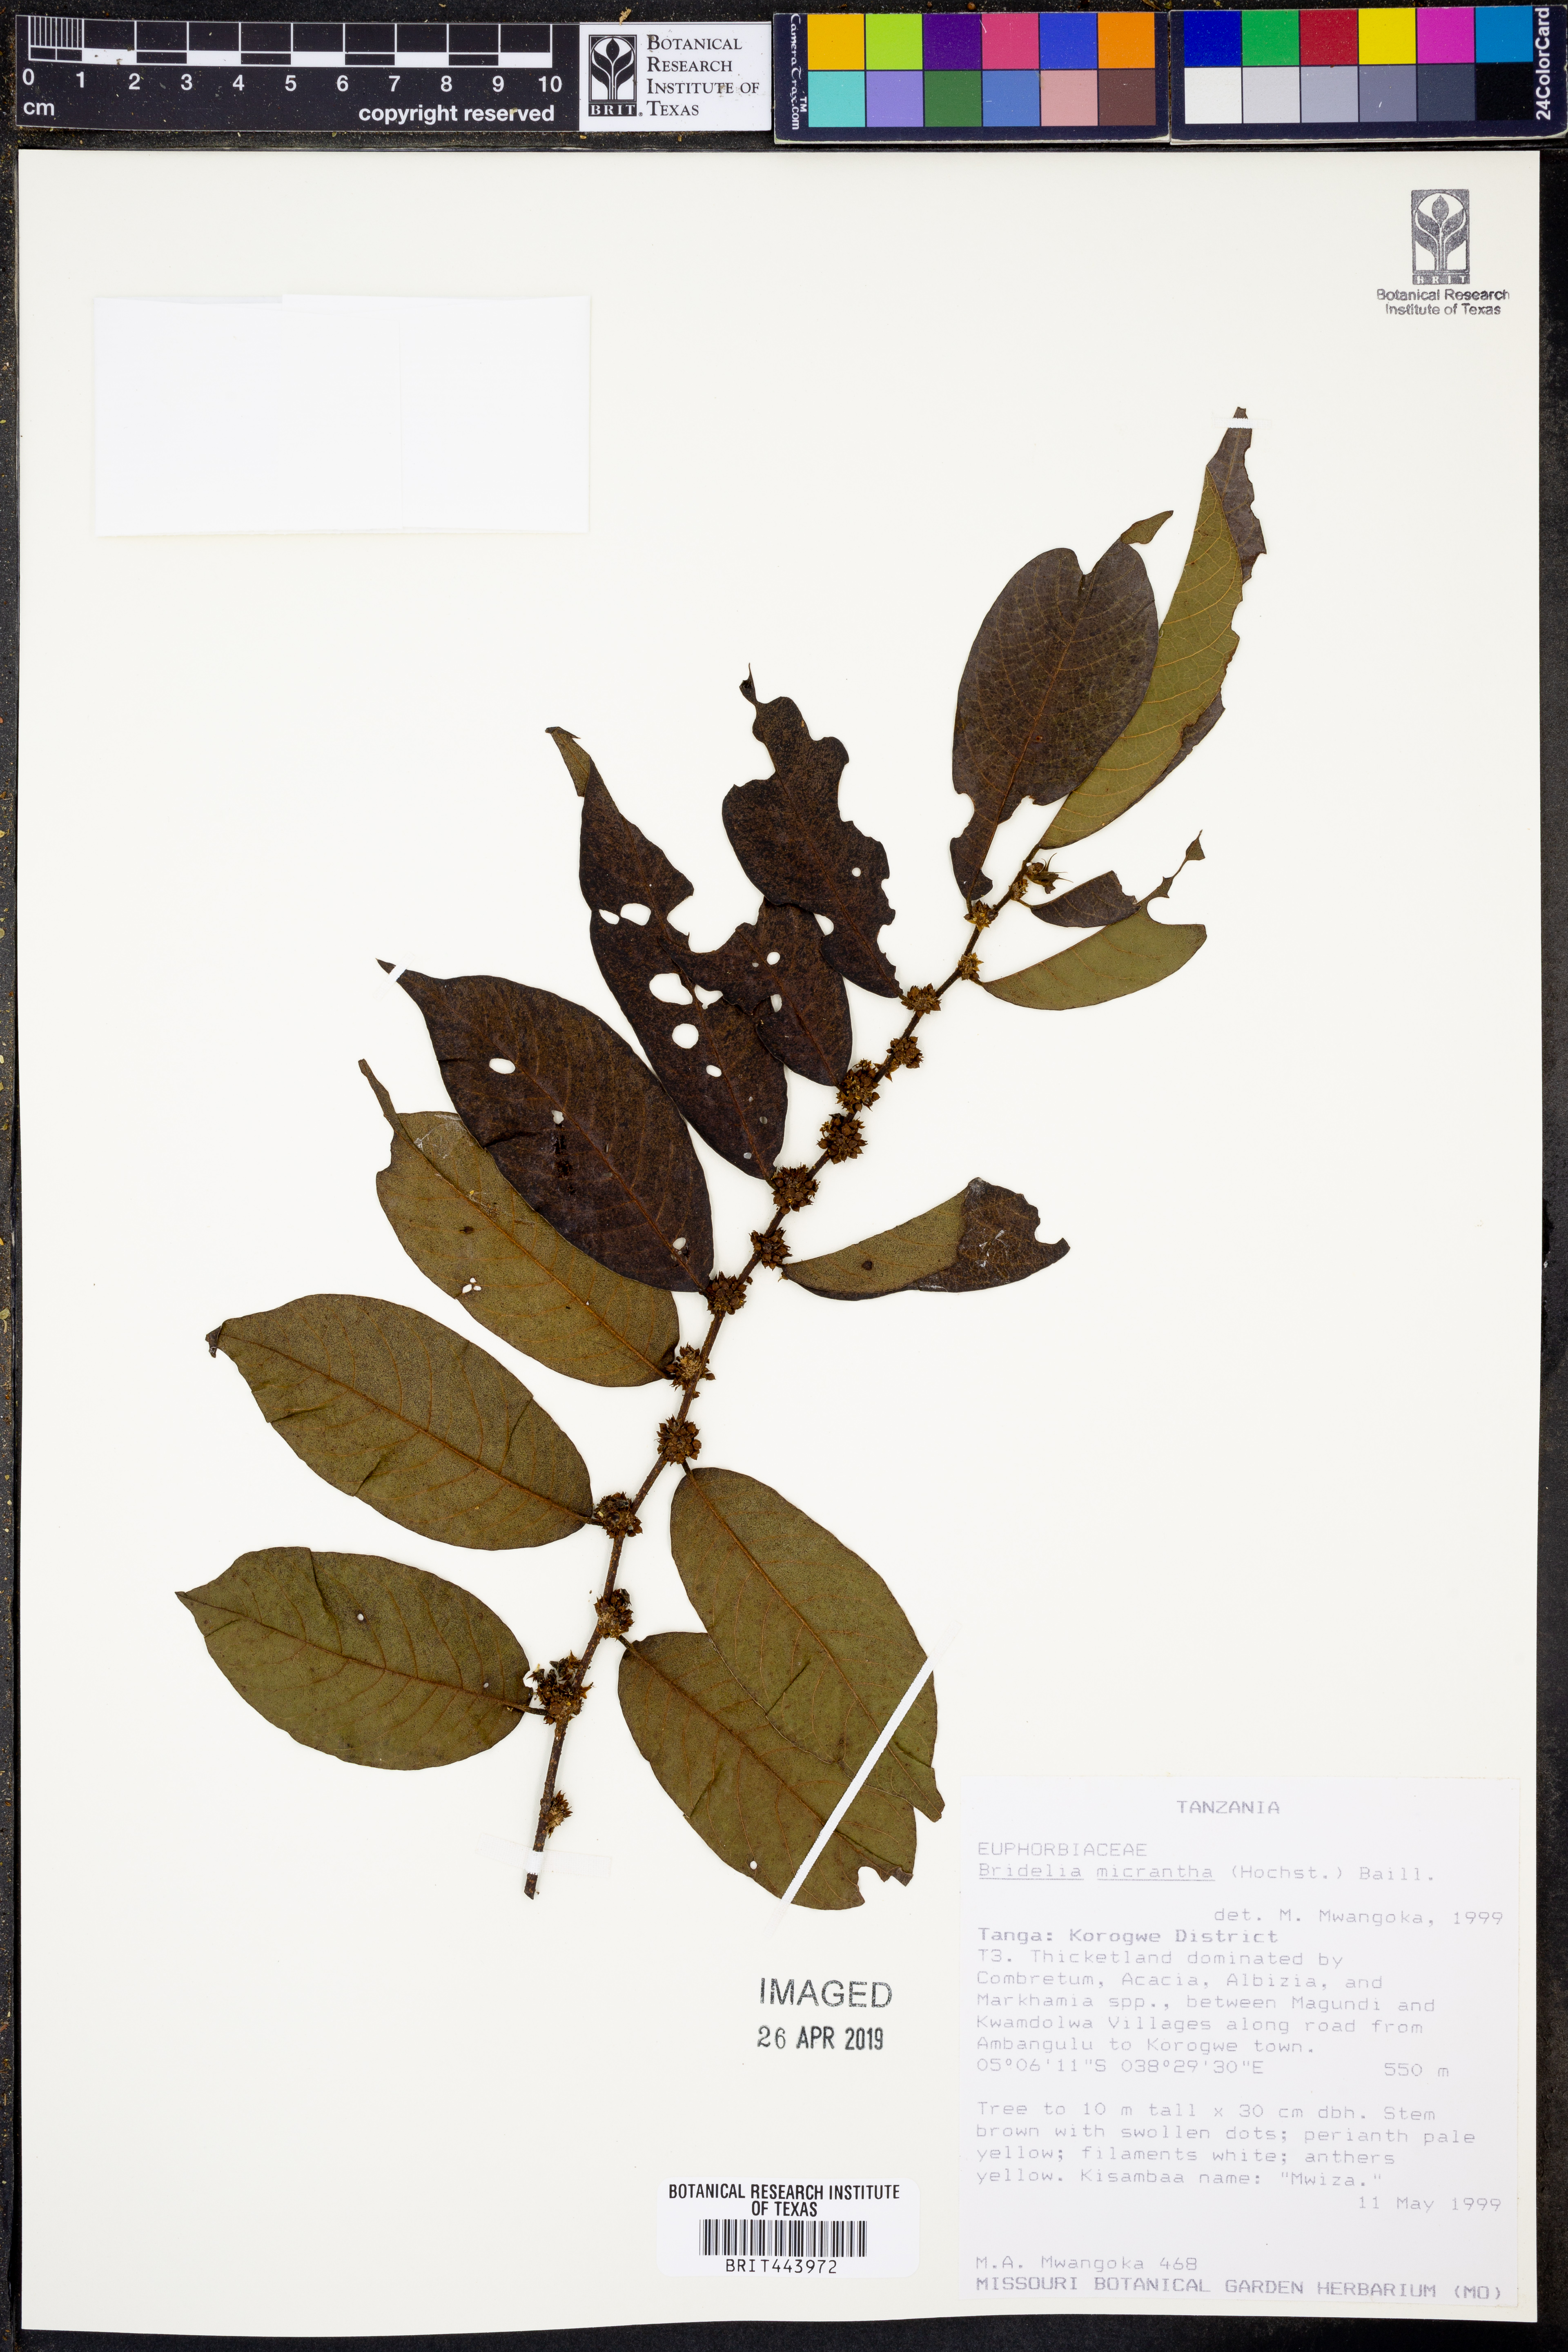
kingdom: Plantae
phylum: Tracheophyta
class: Magnoliopsida
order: Malpighiales
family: Phyllanthaceae
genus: Bridelia
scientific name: Bridelia micrantha
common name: Bridelia
